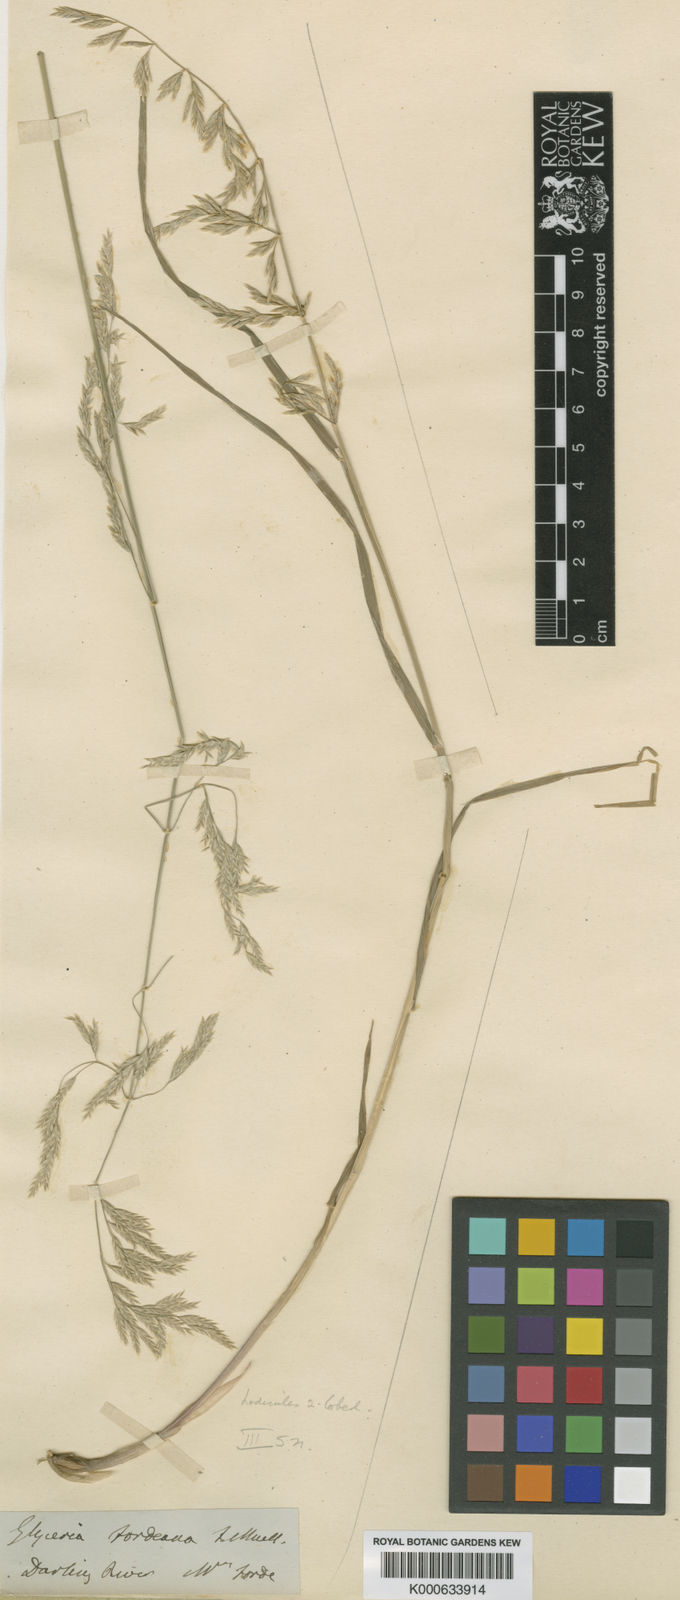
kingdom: Plantae
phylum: Tracheophyta
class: Liliopsida
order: Poales
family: Poaceae
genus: Poa
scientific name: Poa fordeana
